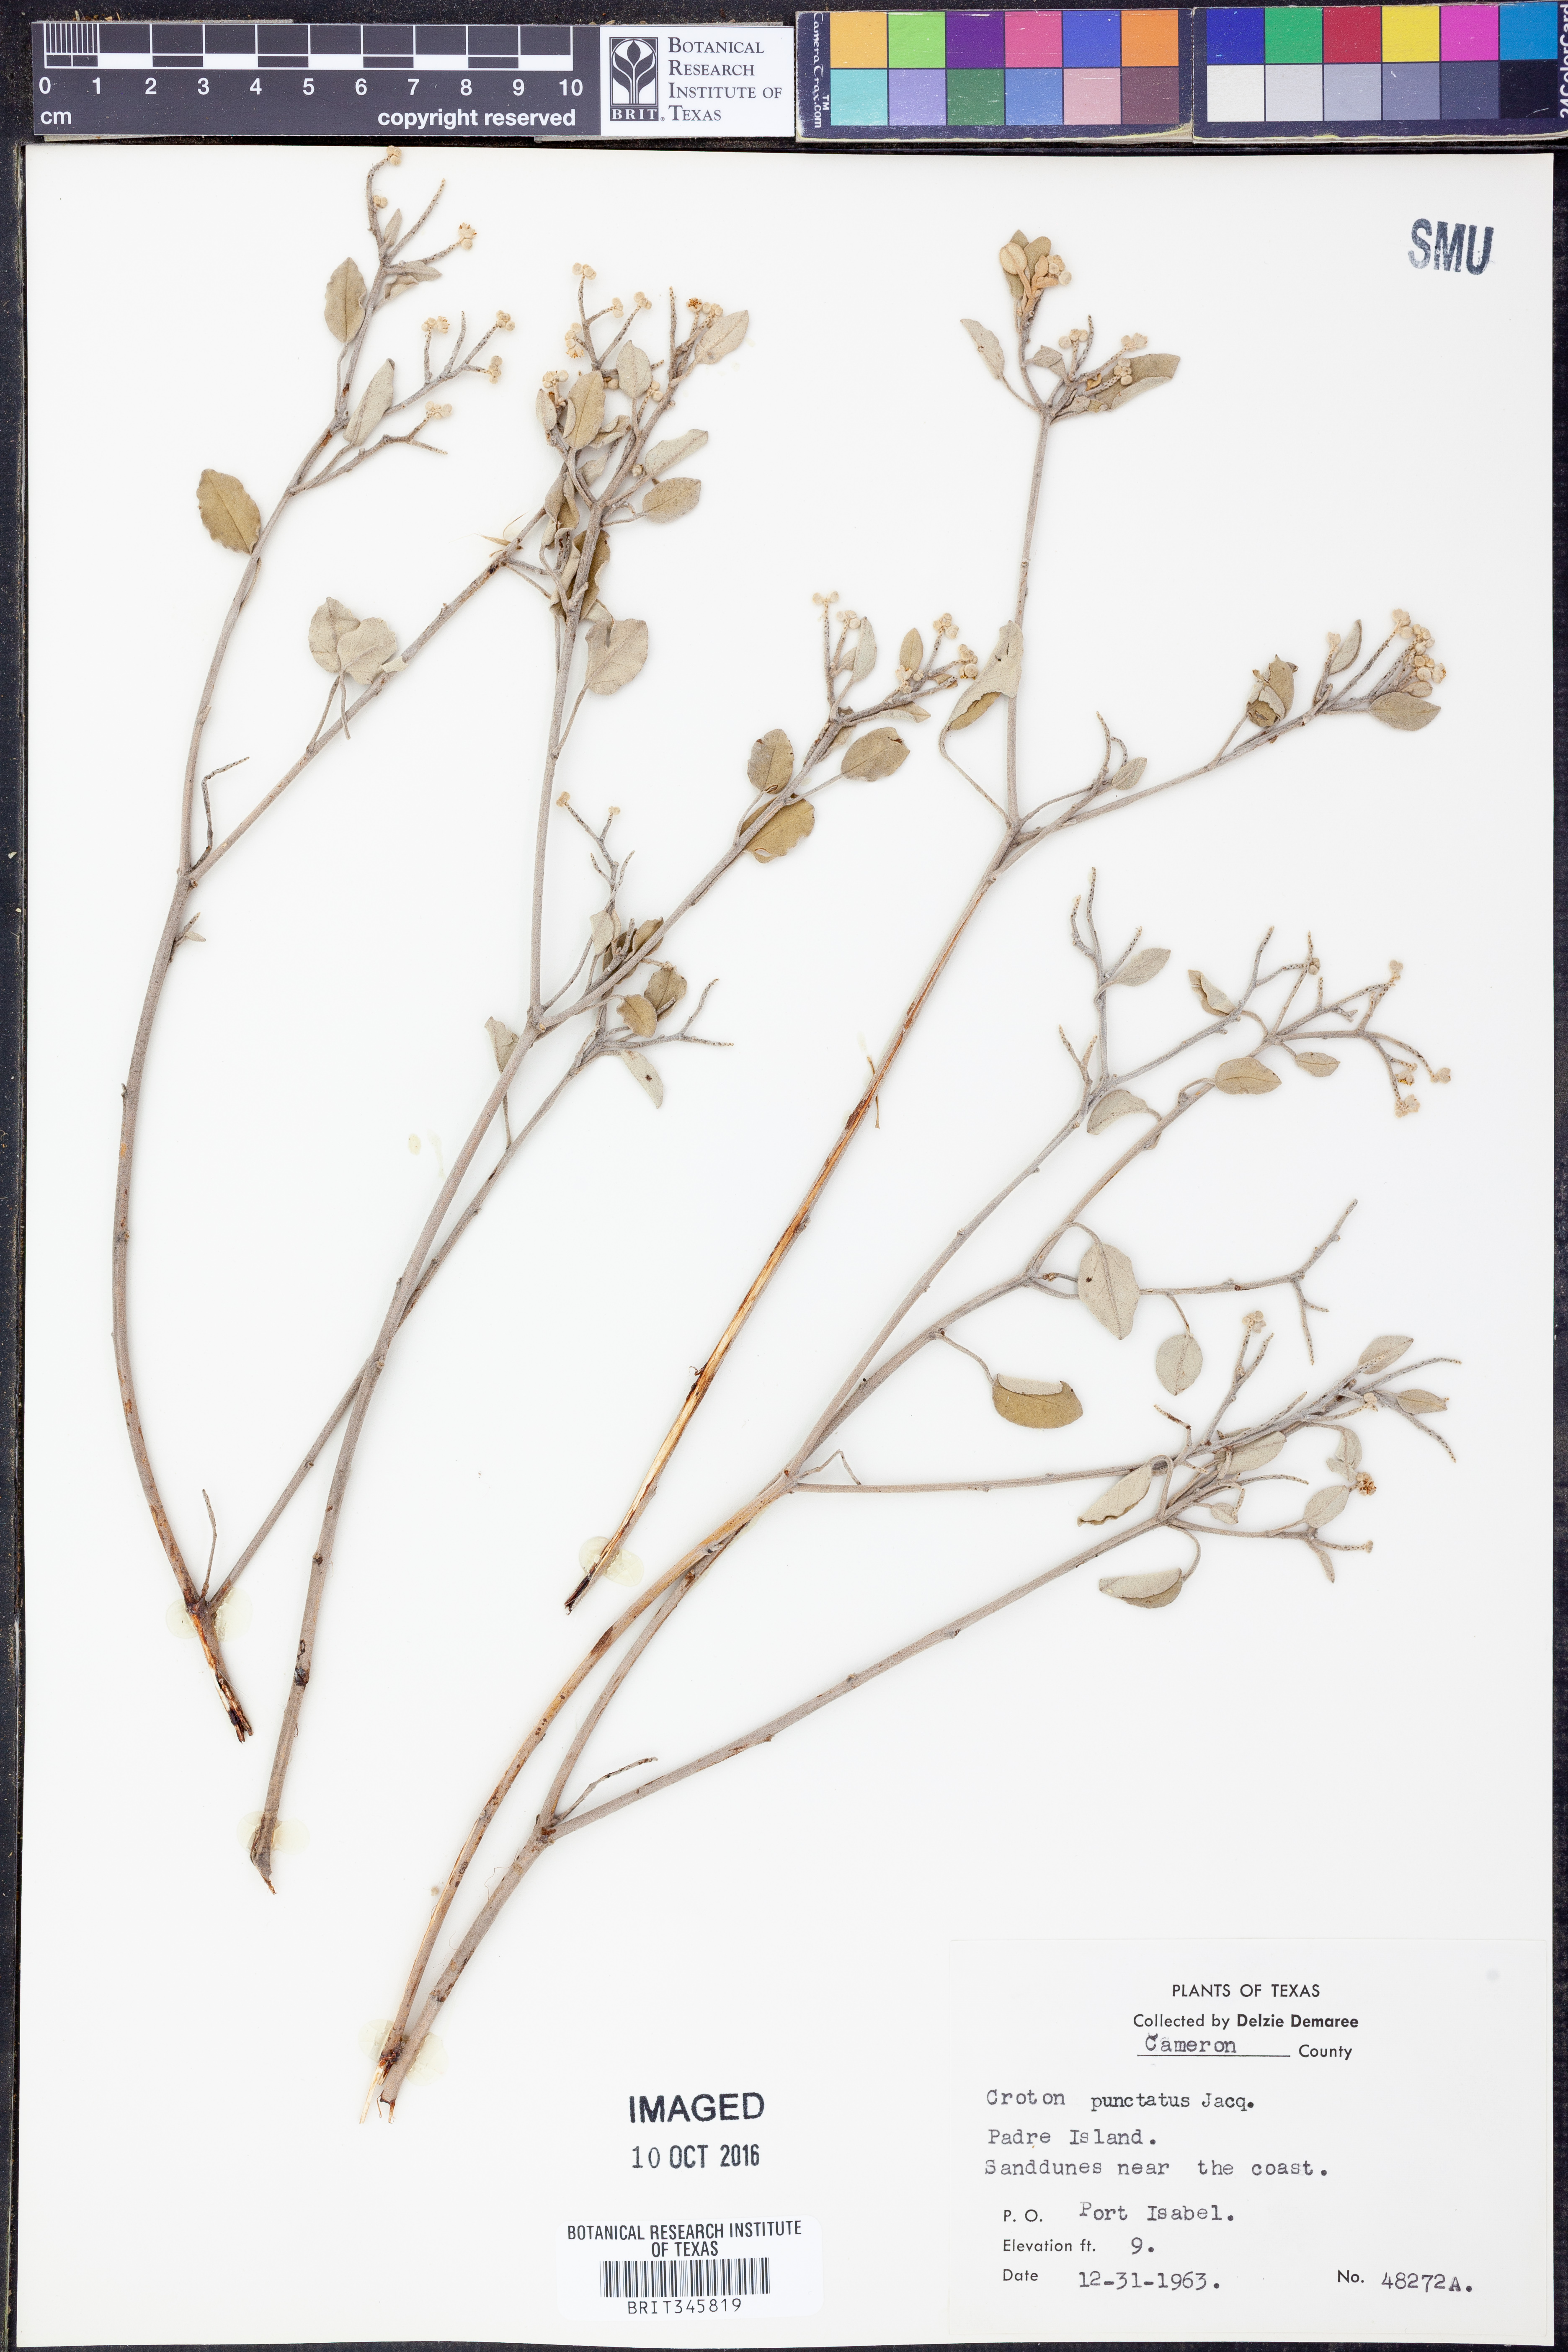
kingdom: Plantae
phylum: Tracheophyta
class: Magnoliopsida
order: Malpighiales
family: Euphorbiaceae
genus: Croton
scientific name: Croton punctatus
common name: Beach-tea
